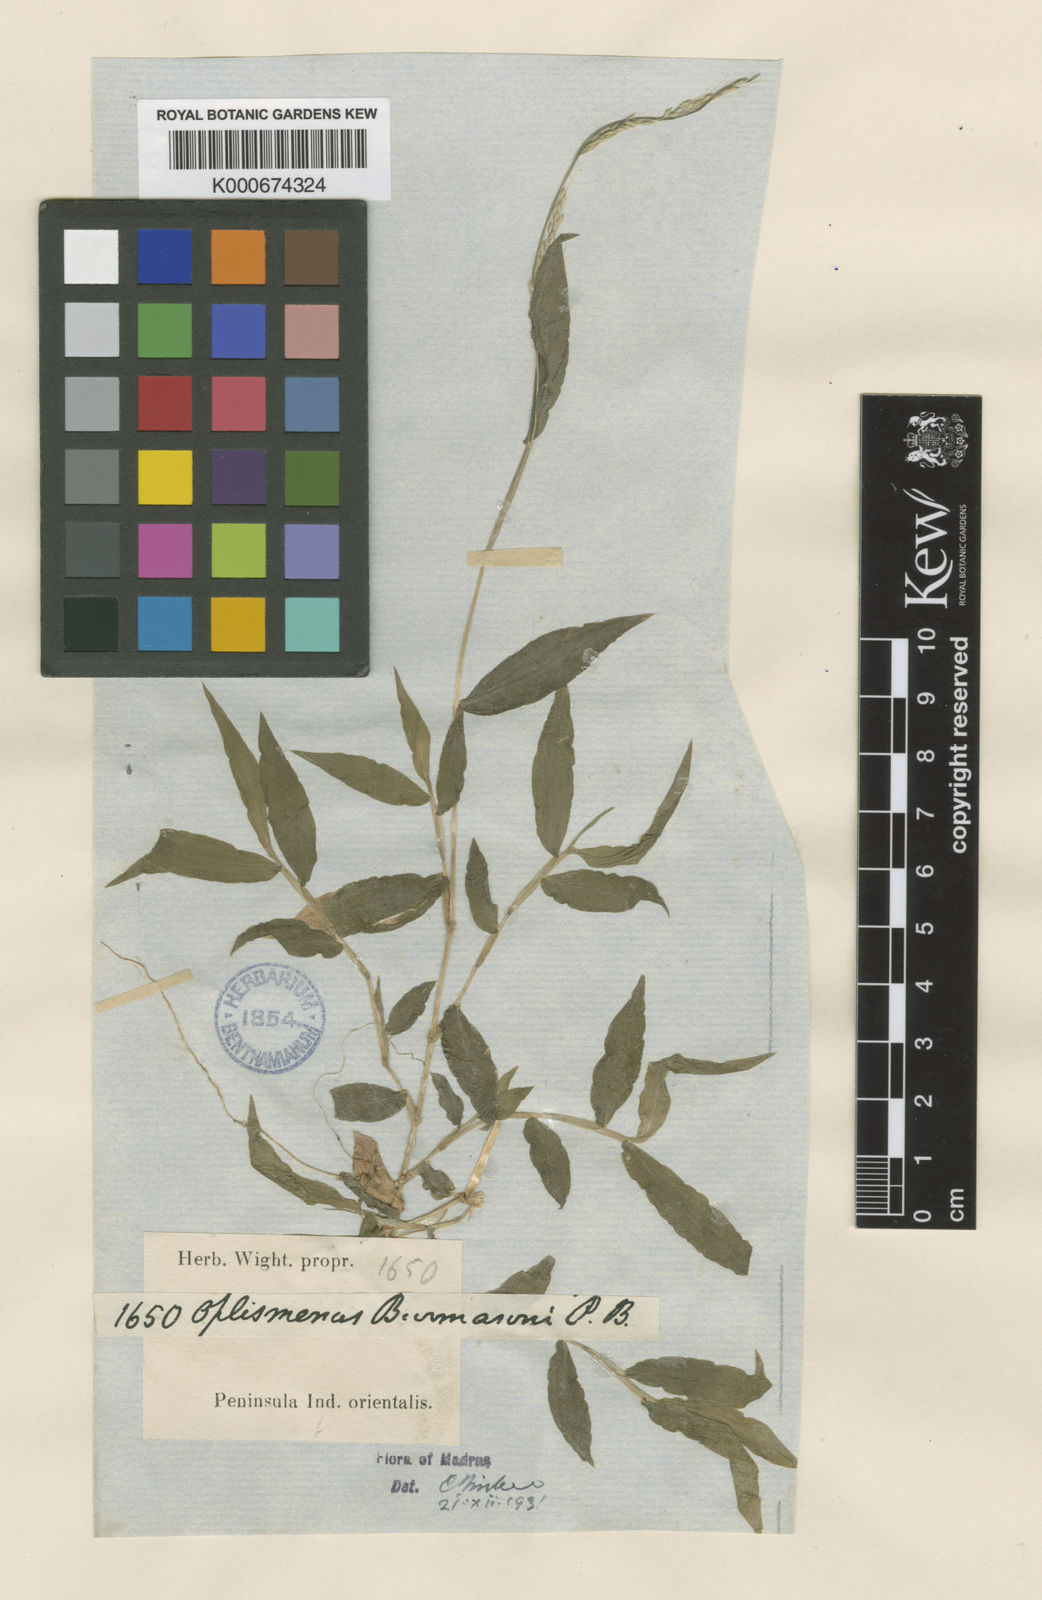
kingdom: Plantae
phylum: Tracheophyta
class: Liliopsida
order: Poales
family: Poaceae
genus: Oplismenus
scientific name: Oplismenus burmanni
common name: Burmann's basketgrass
